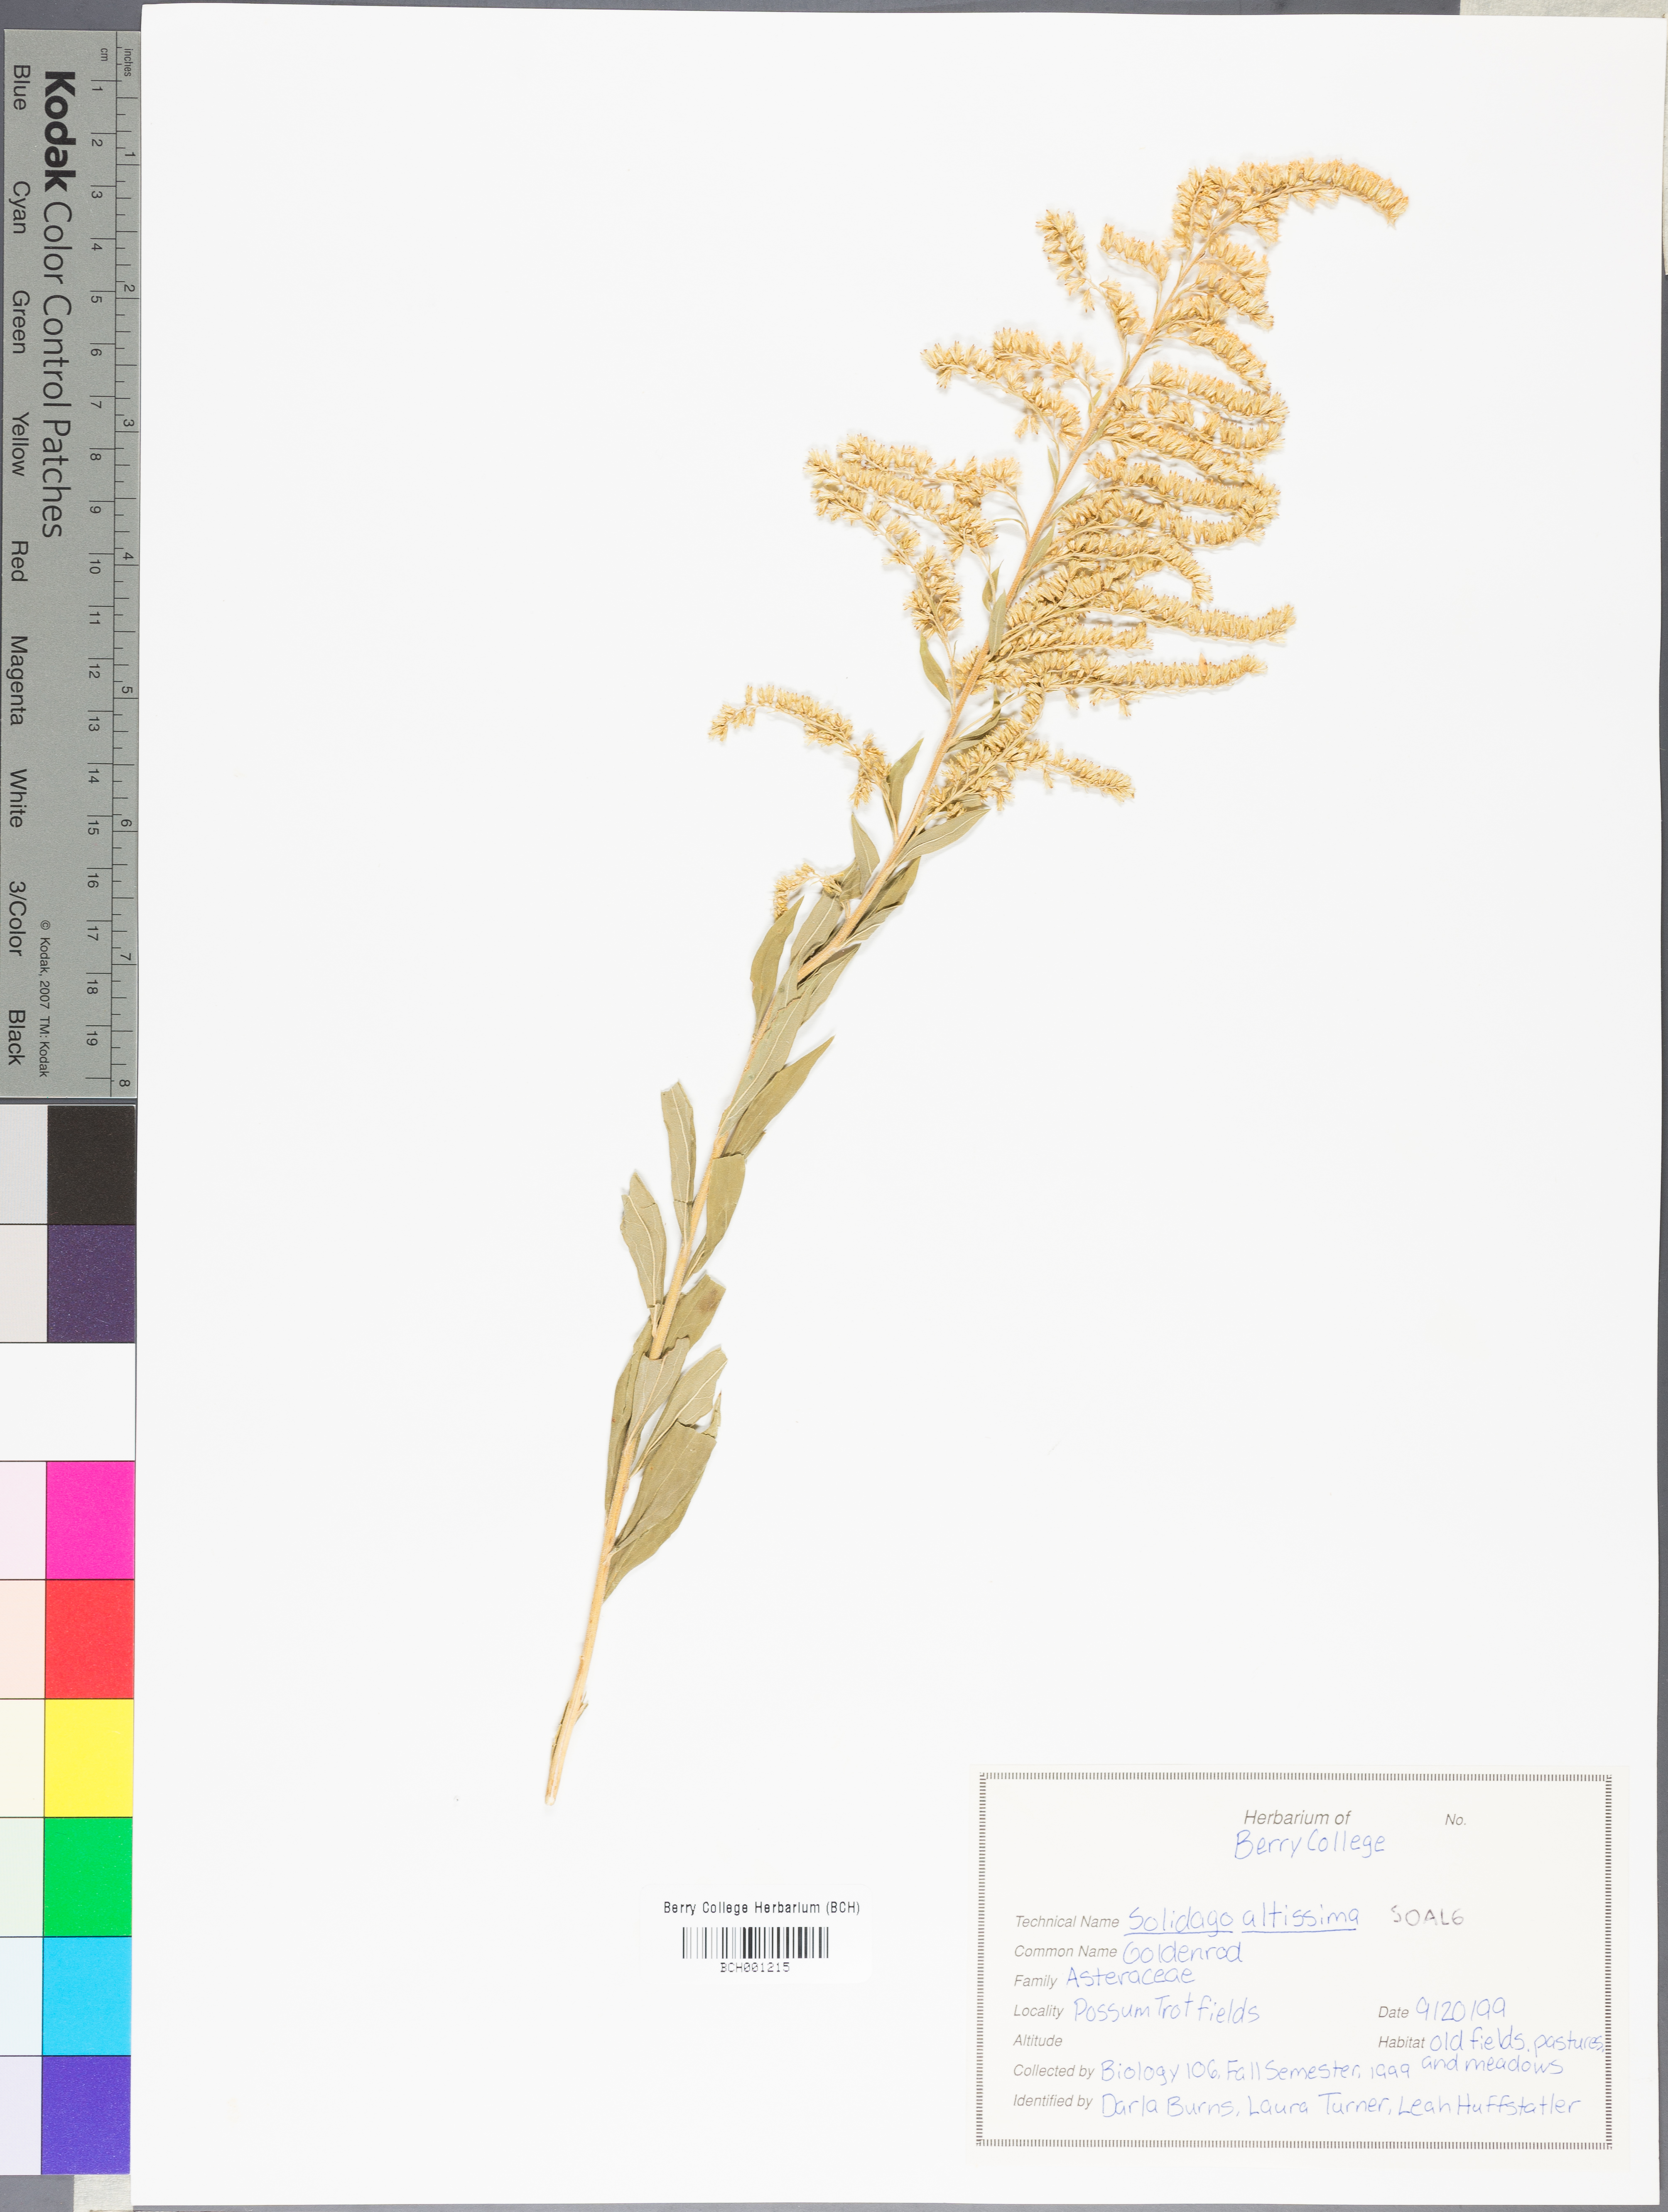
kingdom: Plantae
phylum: Tracheophyta
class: Magnoliopsida
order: Asterales
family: Asteraceae
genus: Solidago
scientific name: Solidago altissima
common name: Late goldenrod
